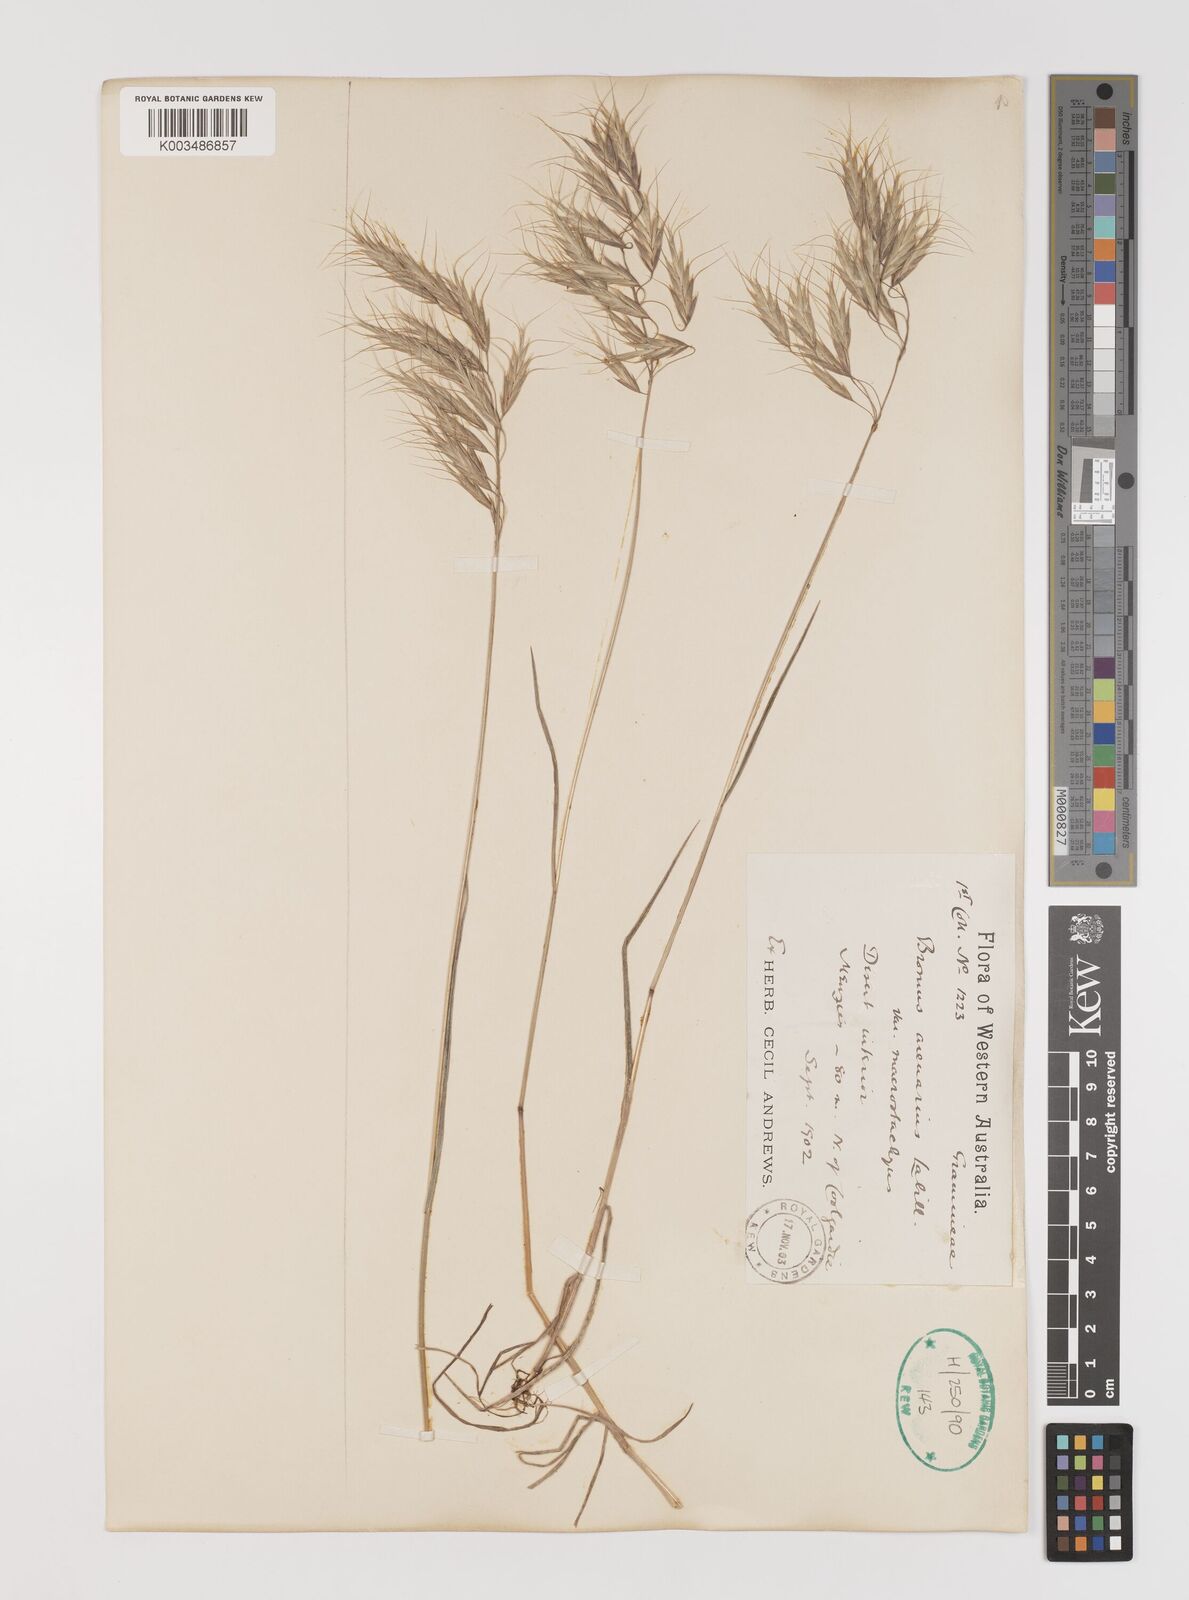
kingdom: Plantae
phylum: Tracheophyta
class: Liliopsida
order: Poales
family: Poaceae
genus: Bromus
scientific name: Bromus arenarius
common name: Australian brome
